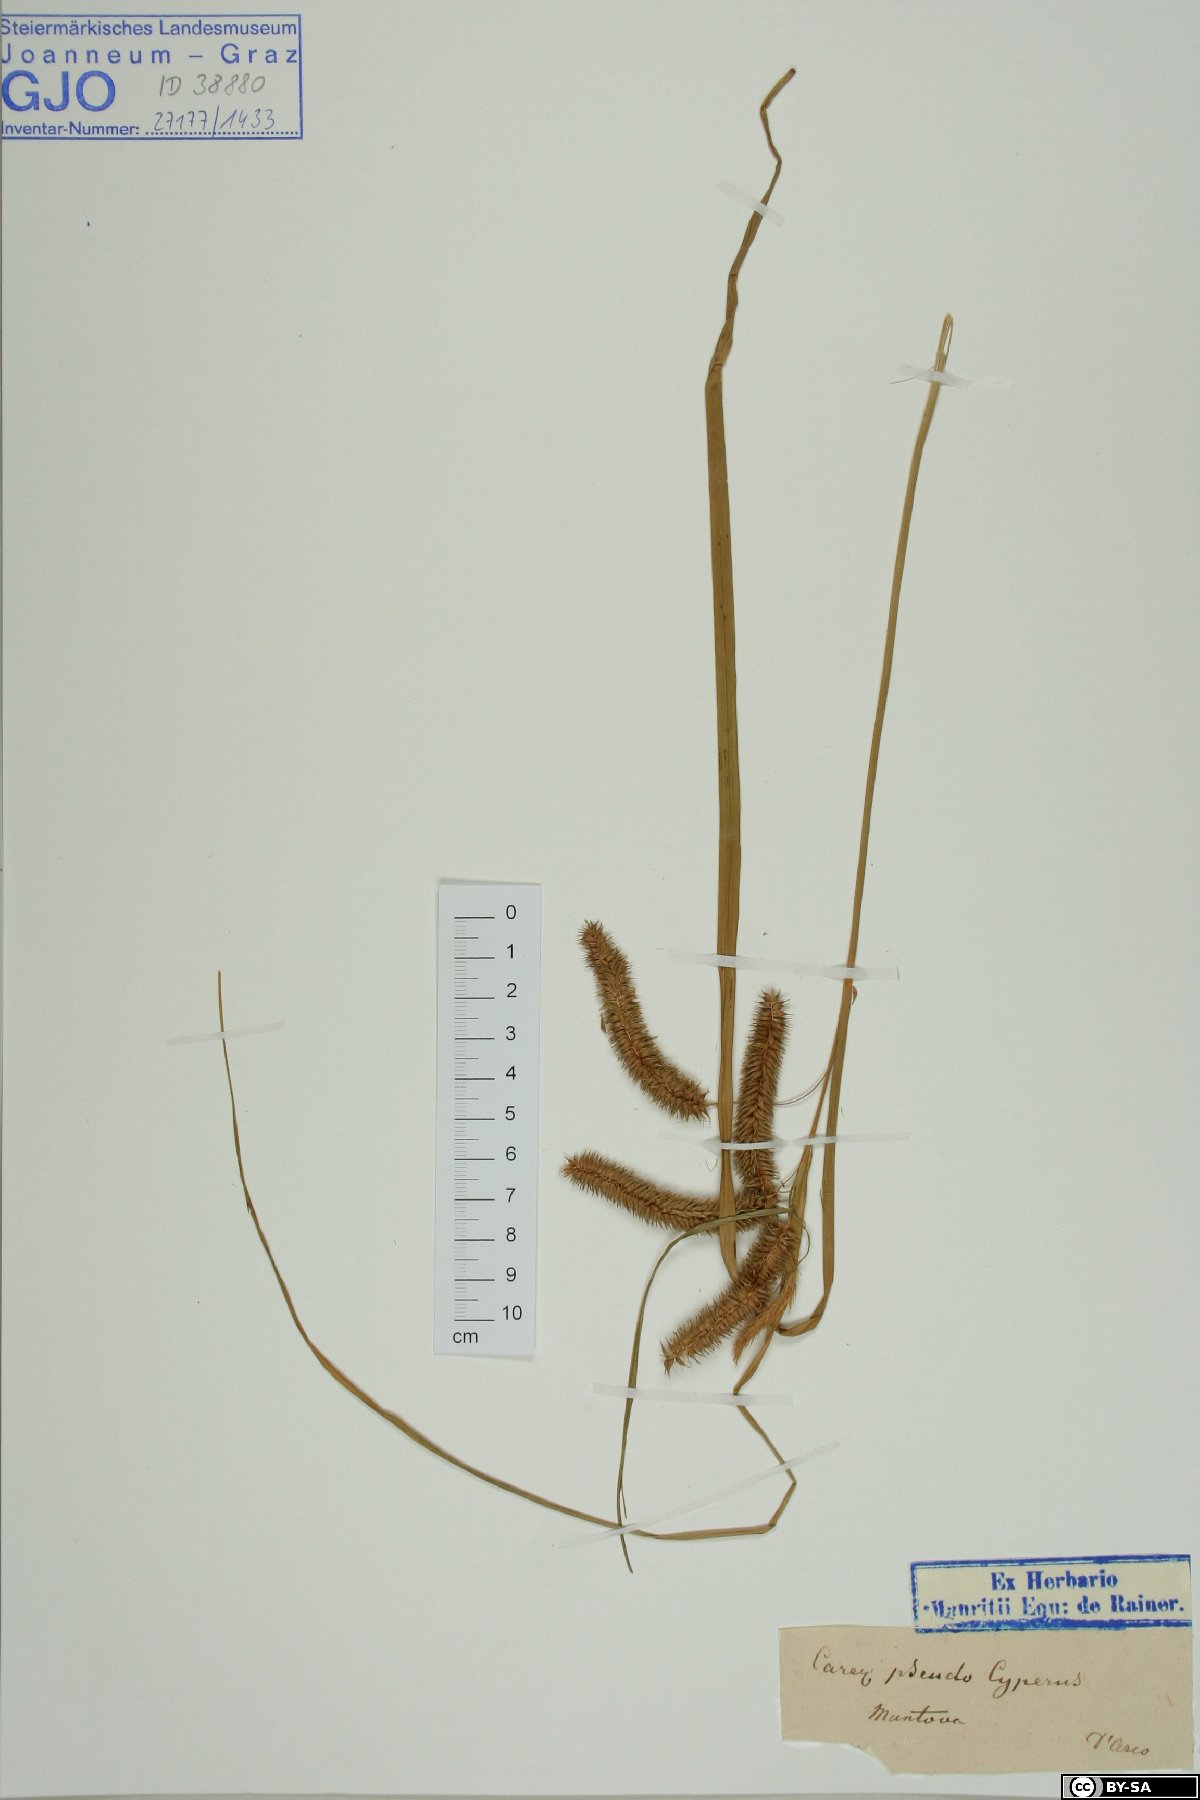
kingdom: Plantae
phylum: Tracheophyta
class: Liliopsida
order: Poales
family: Cyperaceae
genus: Carex
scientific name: Carex pseudocyperus
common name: Cyperus sedge
